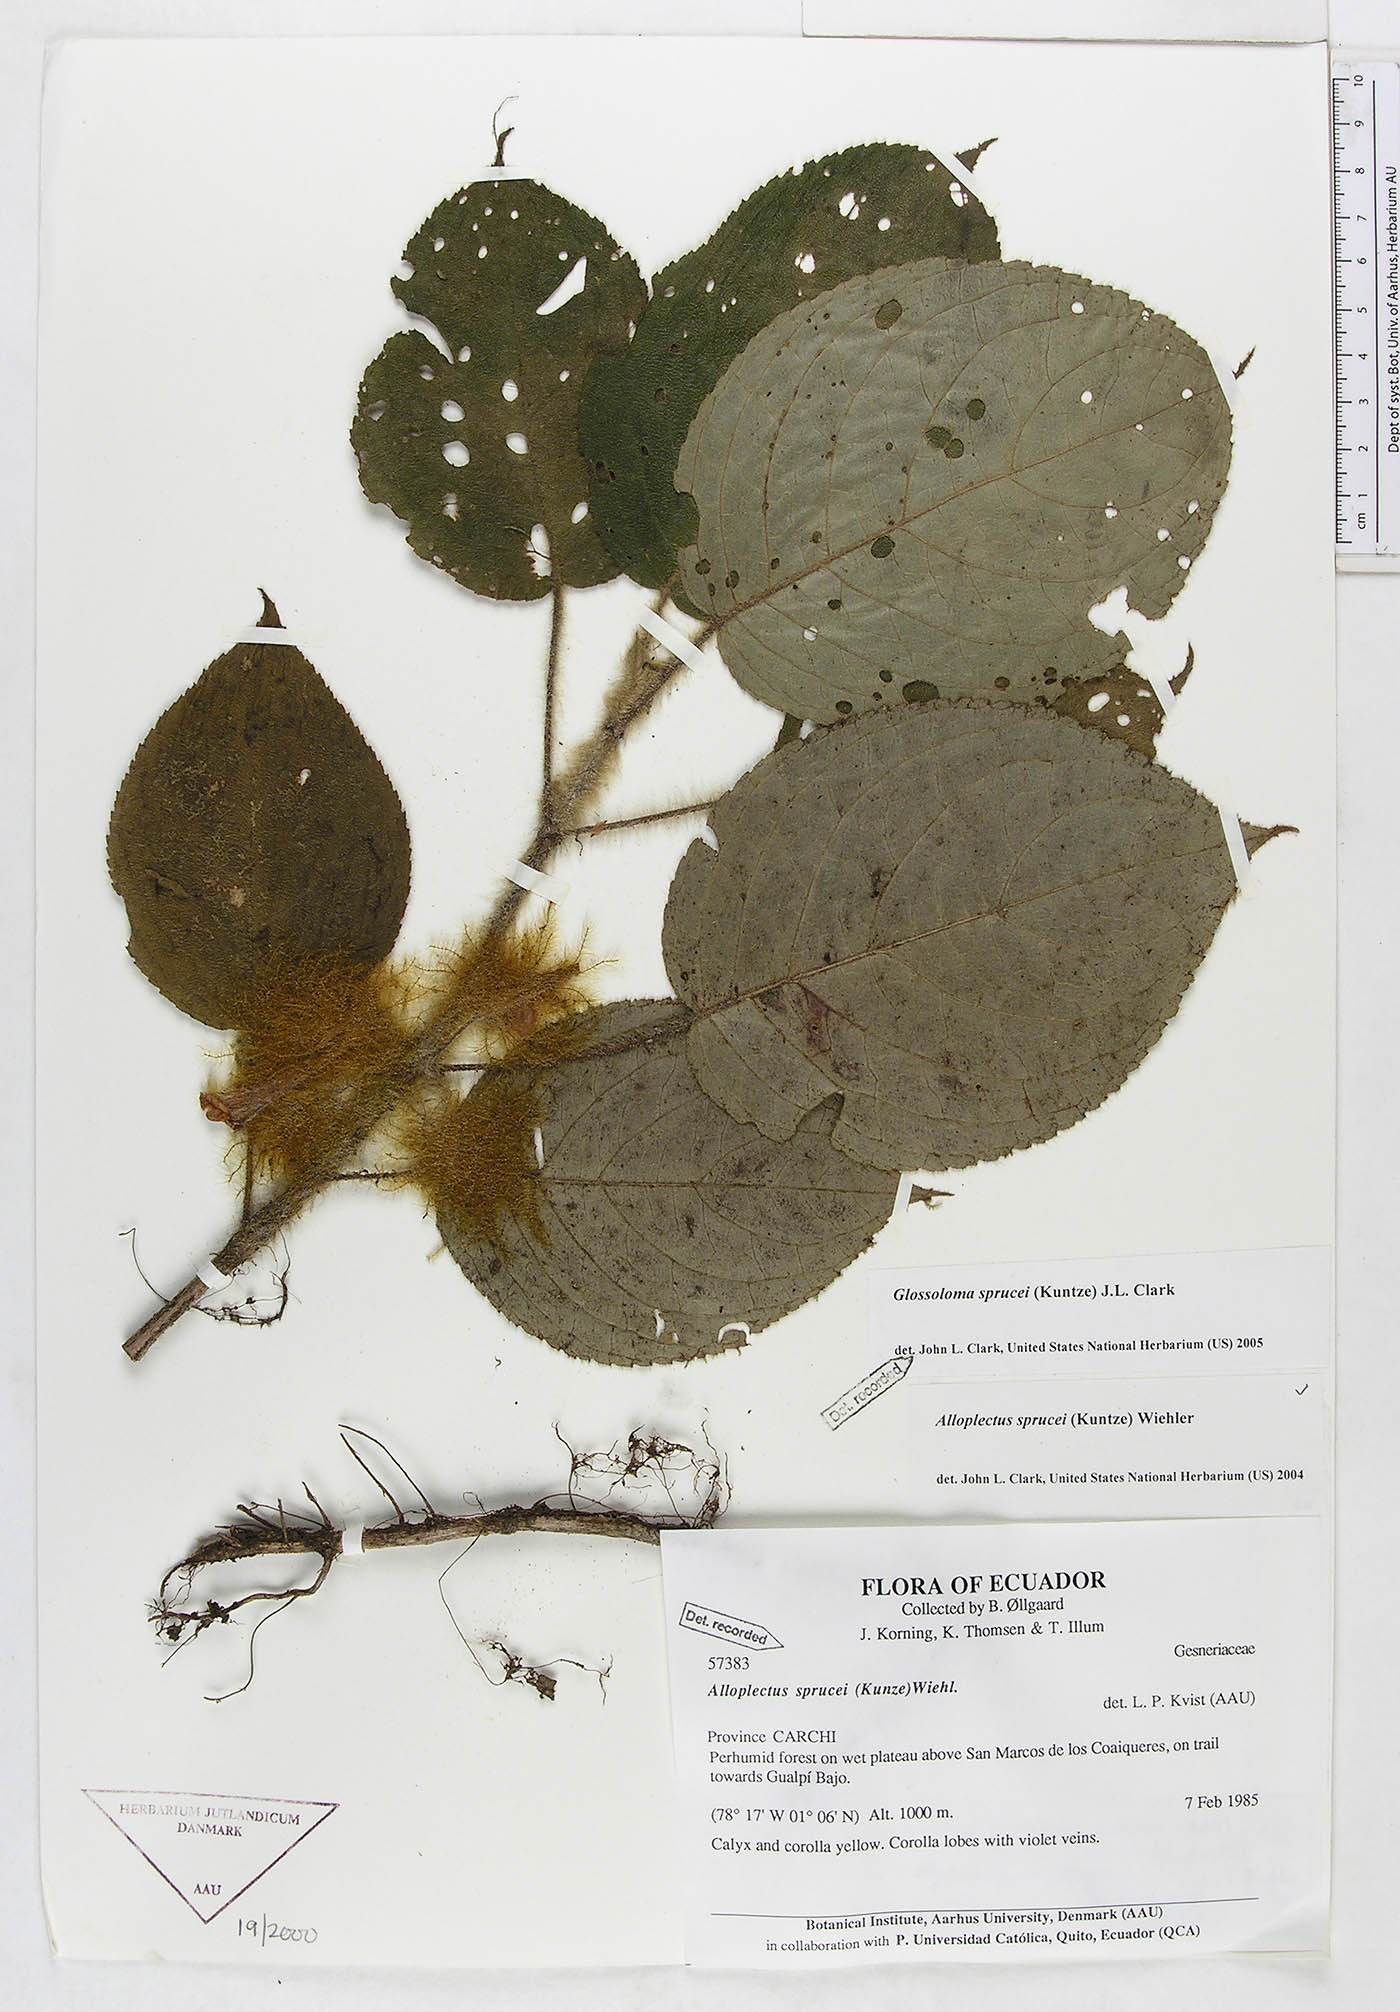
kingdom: Plantae
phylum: Tracheophyta
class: Magnoliopsida
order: Lamiales
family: Gesneriaceae
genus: Glossoloma
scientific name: Glossoloma sprucei
